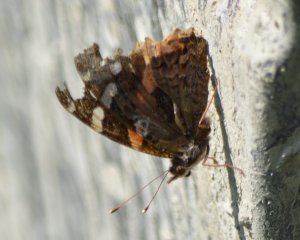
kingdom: Animalia
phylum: Arthropoda
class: Insecta
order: Lepidoptera
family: Nymphalidae
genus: Vanessa
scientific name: Vanessa atalanta
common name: Red Admiral
